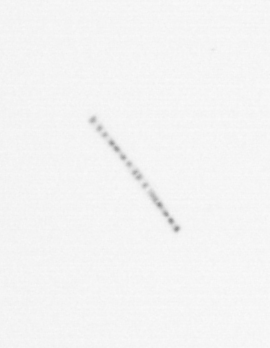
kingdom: Chromista
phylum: Ochrophyta
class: Bacillariophyceae
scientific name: Bacillariophyceae
